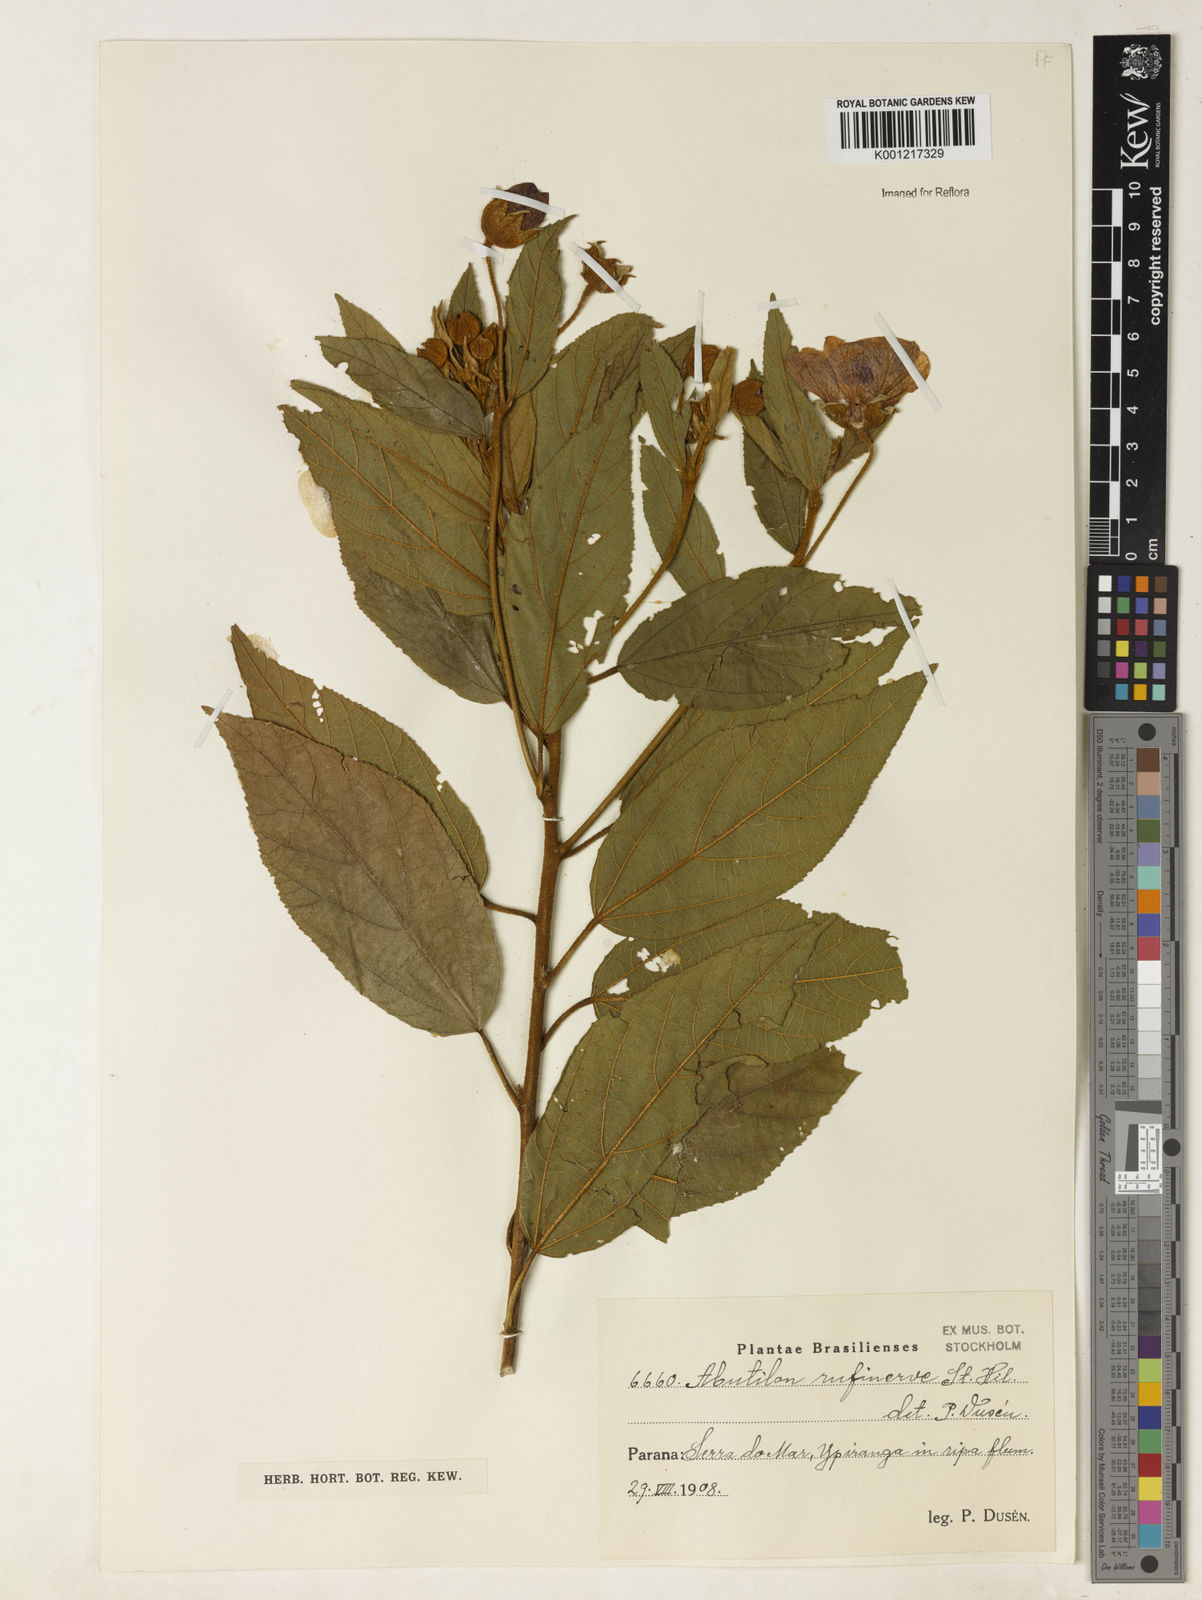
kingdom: Plantae
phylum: Tracheophyta
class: Magnoliopsida
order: Malvales
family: Malvaceae
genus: Callianthe
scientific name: Callianthe rufinerva
